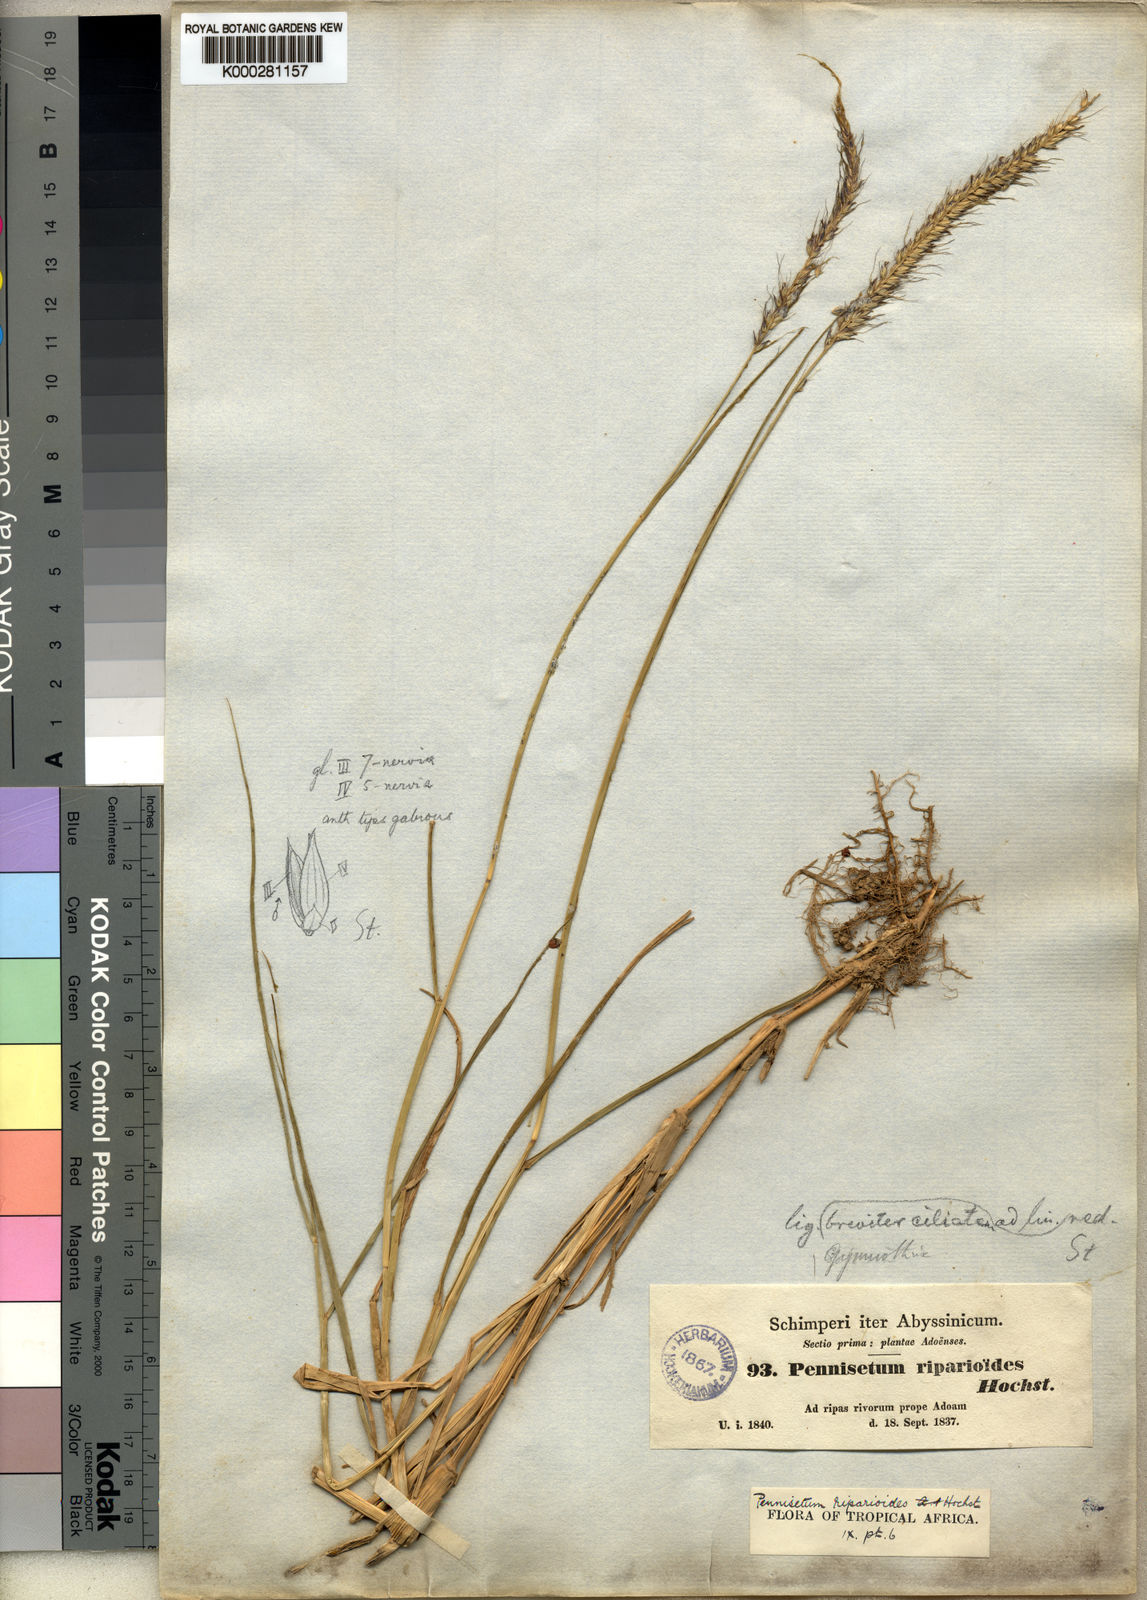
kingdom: Plantae
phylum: Tracheophyta
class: Liliopsida
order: Poales
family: Poaceae
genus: Cenchrus
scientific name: Cenchrus caudatus
